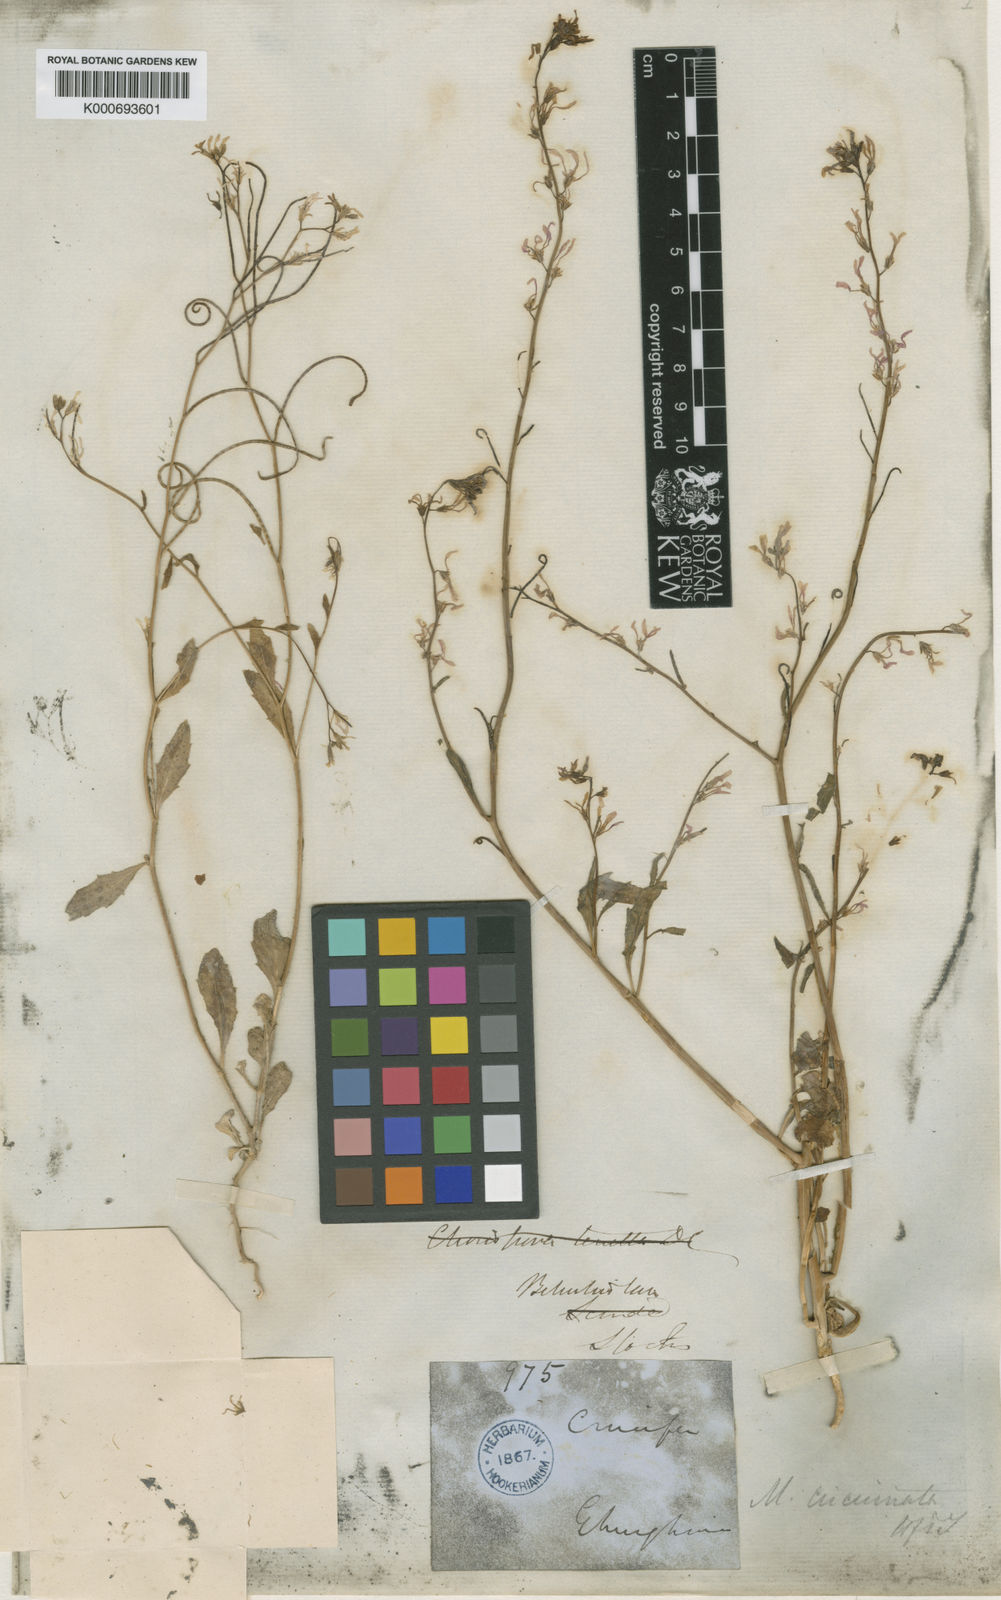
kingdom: Plantae
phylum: Tracheophyta
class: Magnoliopsida
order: Brassicales
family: Brassicaceae
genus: Malcolmia
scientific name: Malcolmia
